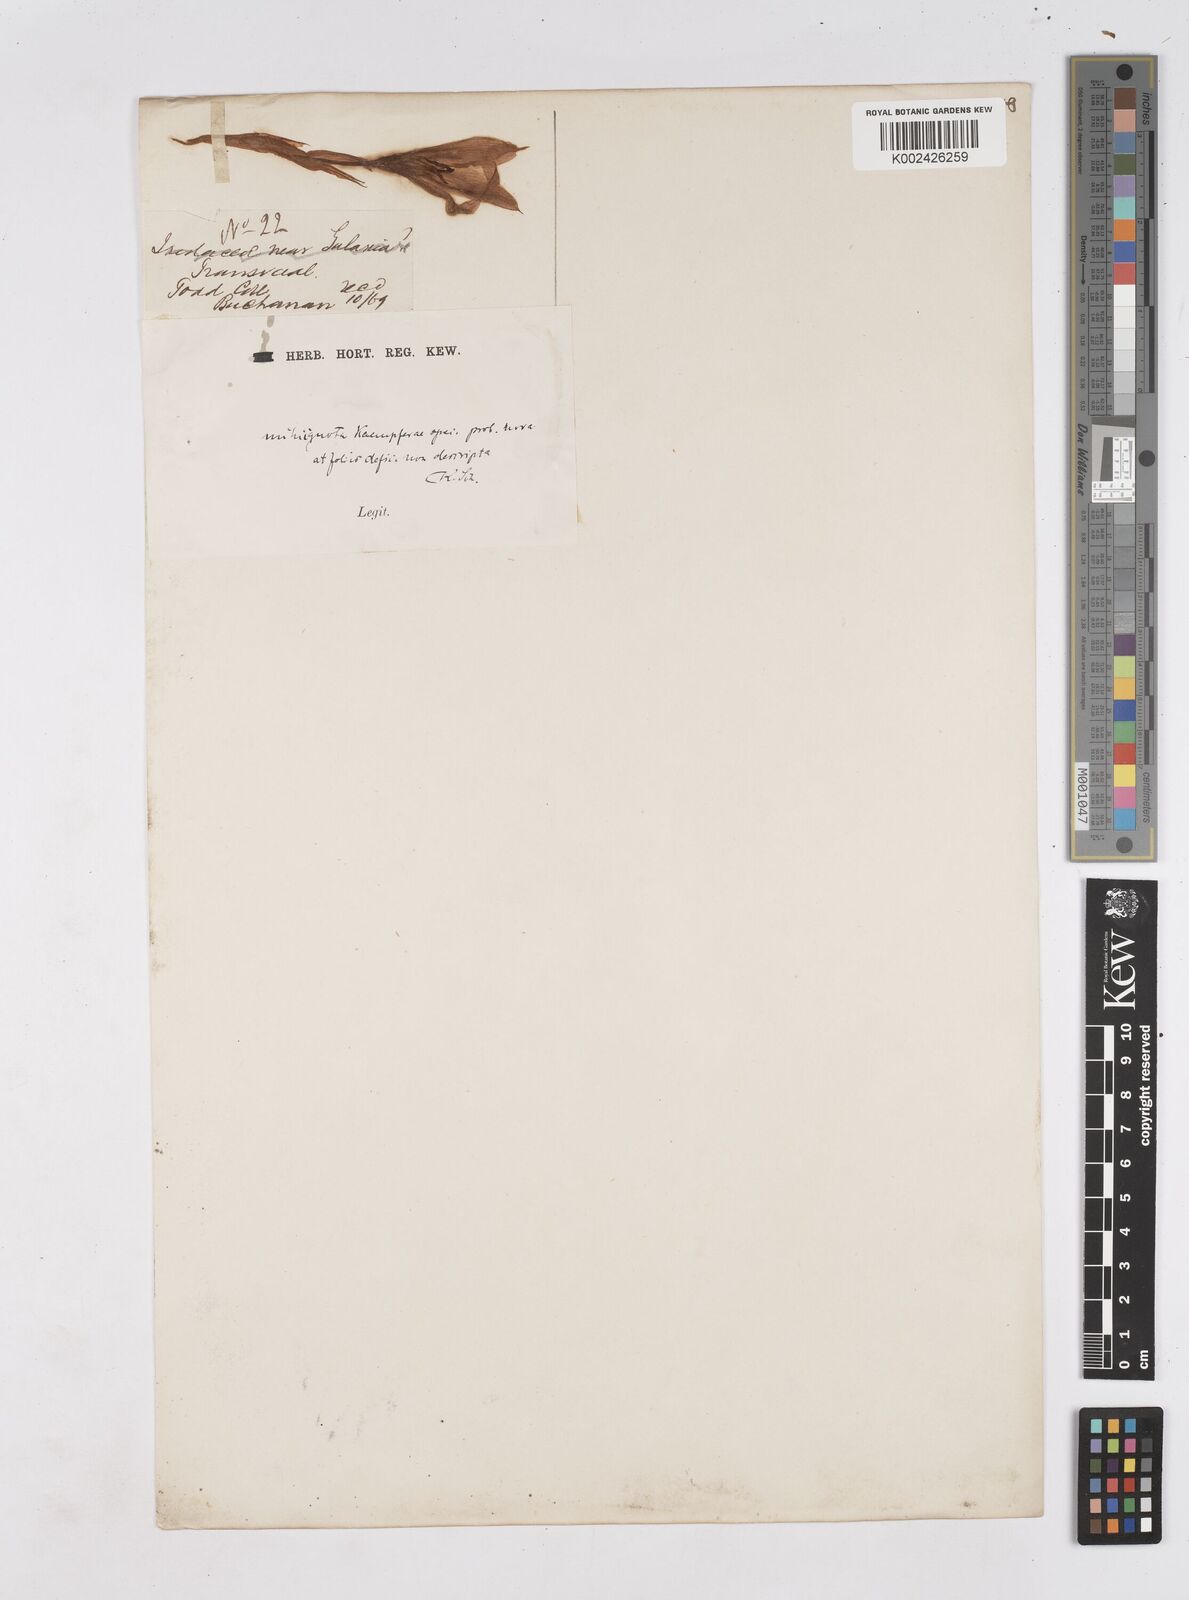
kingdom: Plantae
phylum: Tracheophyta
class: Liliopsida
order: Zingiberales
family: Zingiberaceae
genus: Siphonochilus
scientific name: Siphonochilus
